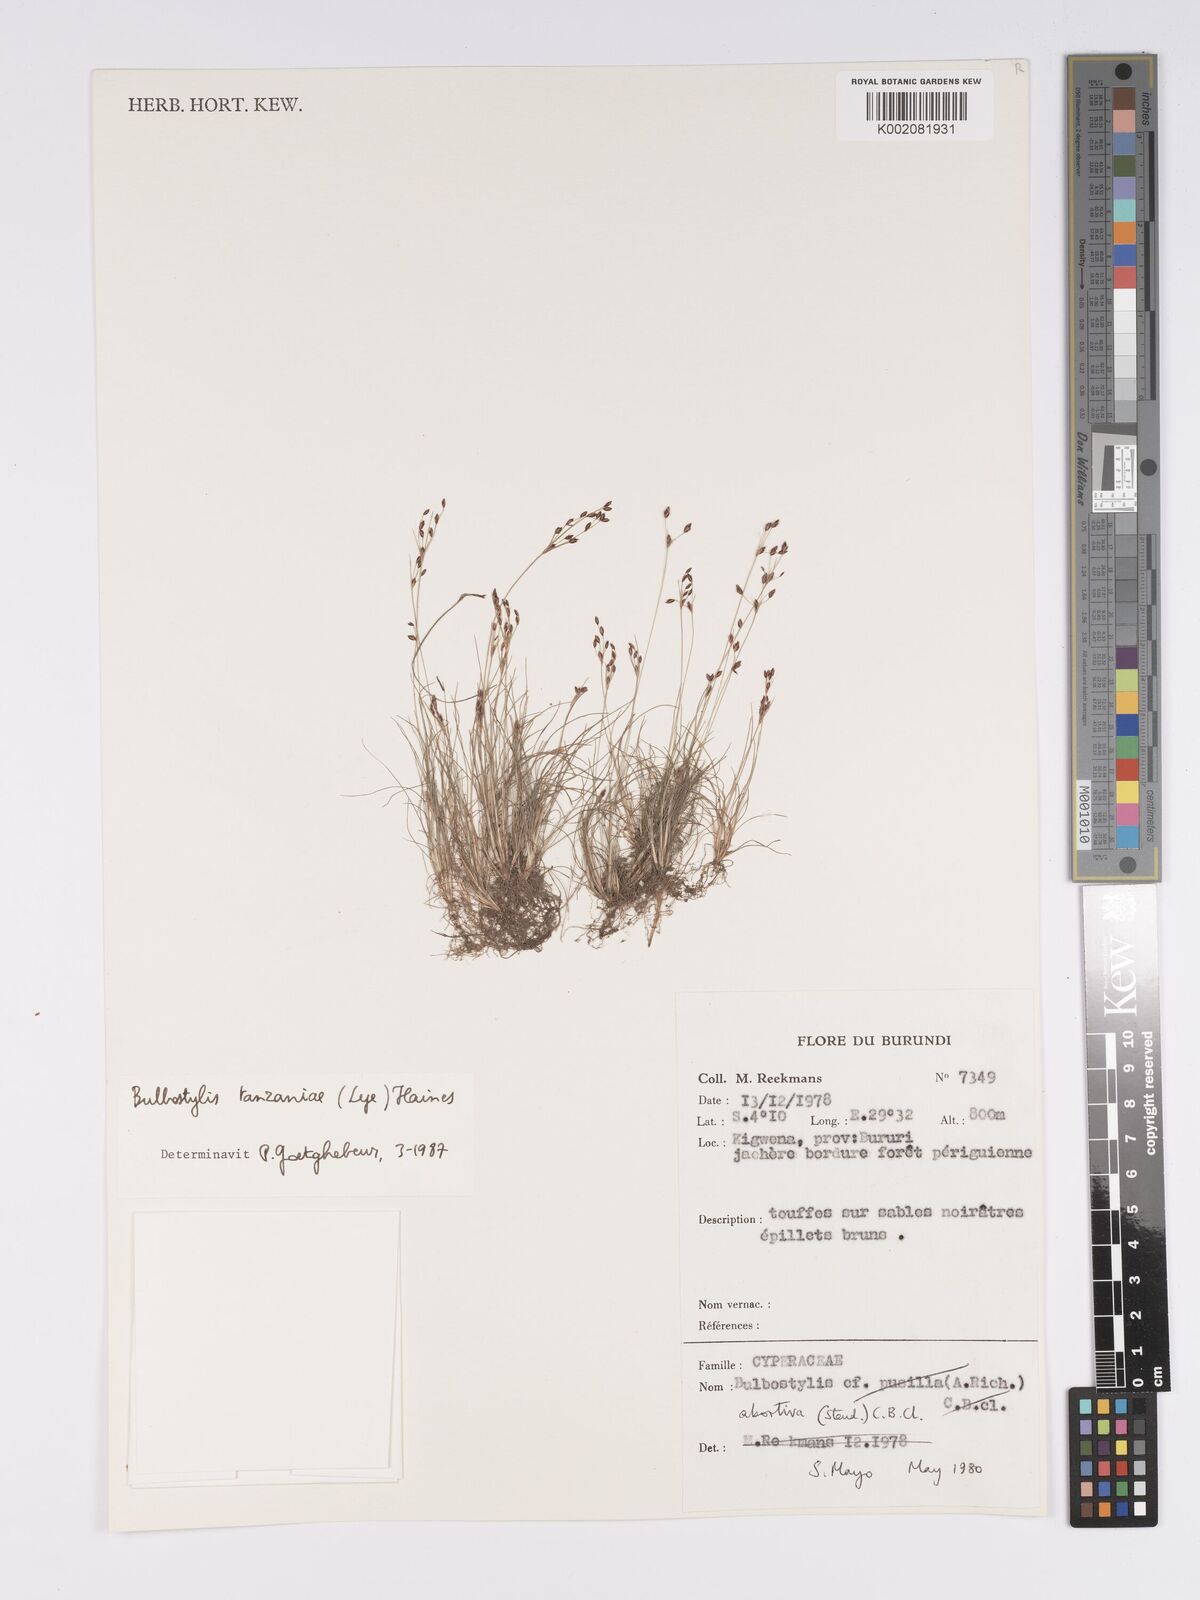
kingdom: Plantae
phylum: Tracheophyta
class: Liliopsida
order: Poales
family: Cyperaceae
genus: Bulbostylis
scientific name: Bulbostylis tanzaniae
